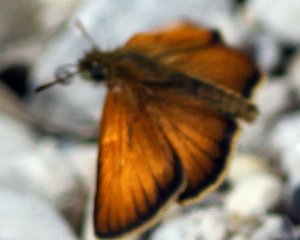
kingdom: Animalia
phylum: Arthropoda
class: Insecta
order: Lepidoptera
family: Hesperiidae
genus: Thymelicus
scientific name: Thymelicus lineola
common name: European Skipper
